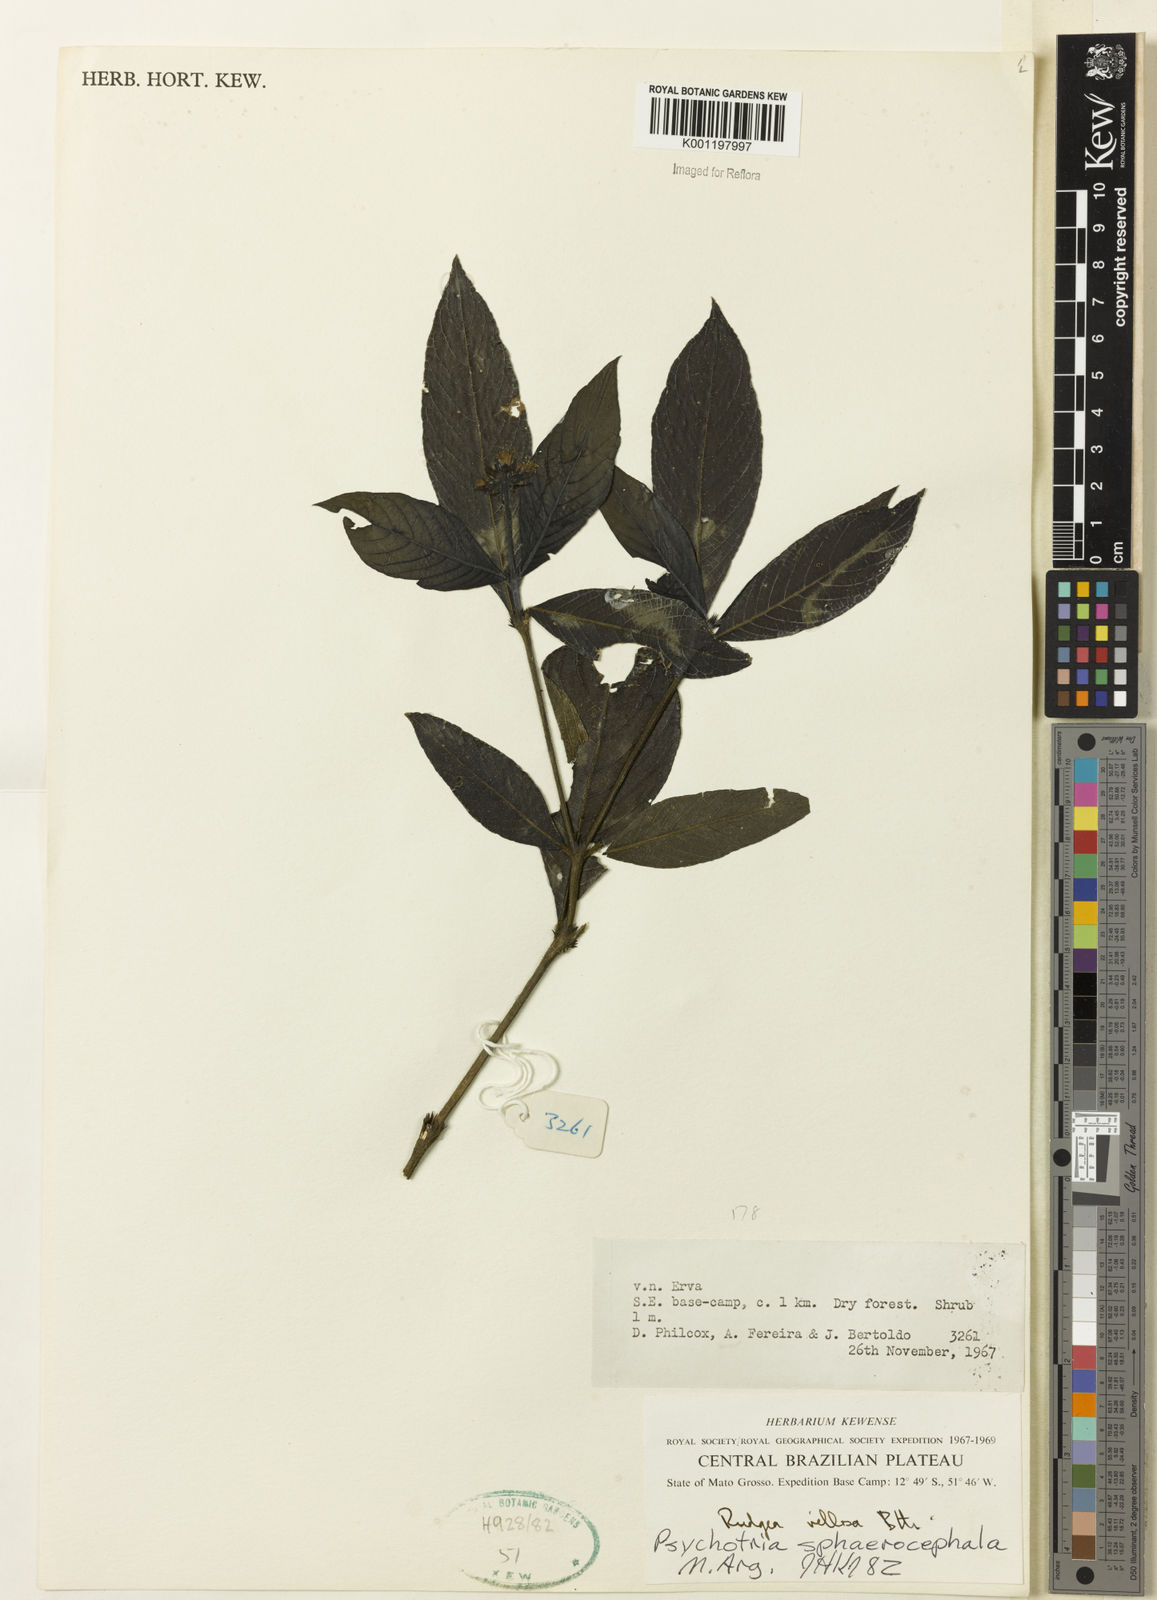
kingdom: Plantae
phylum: Tracheophyta
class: Magnoliopsida
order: Gentianales
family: Rubiaceae
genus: Psychotria
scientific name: Psychotria
